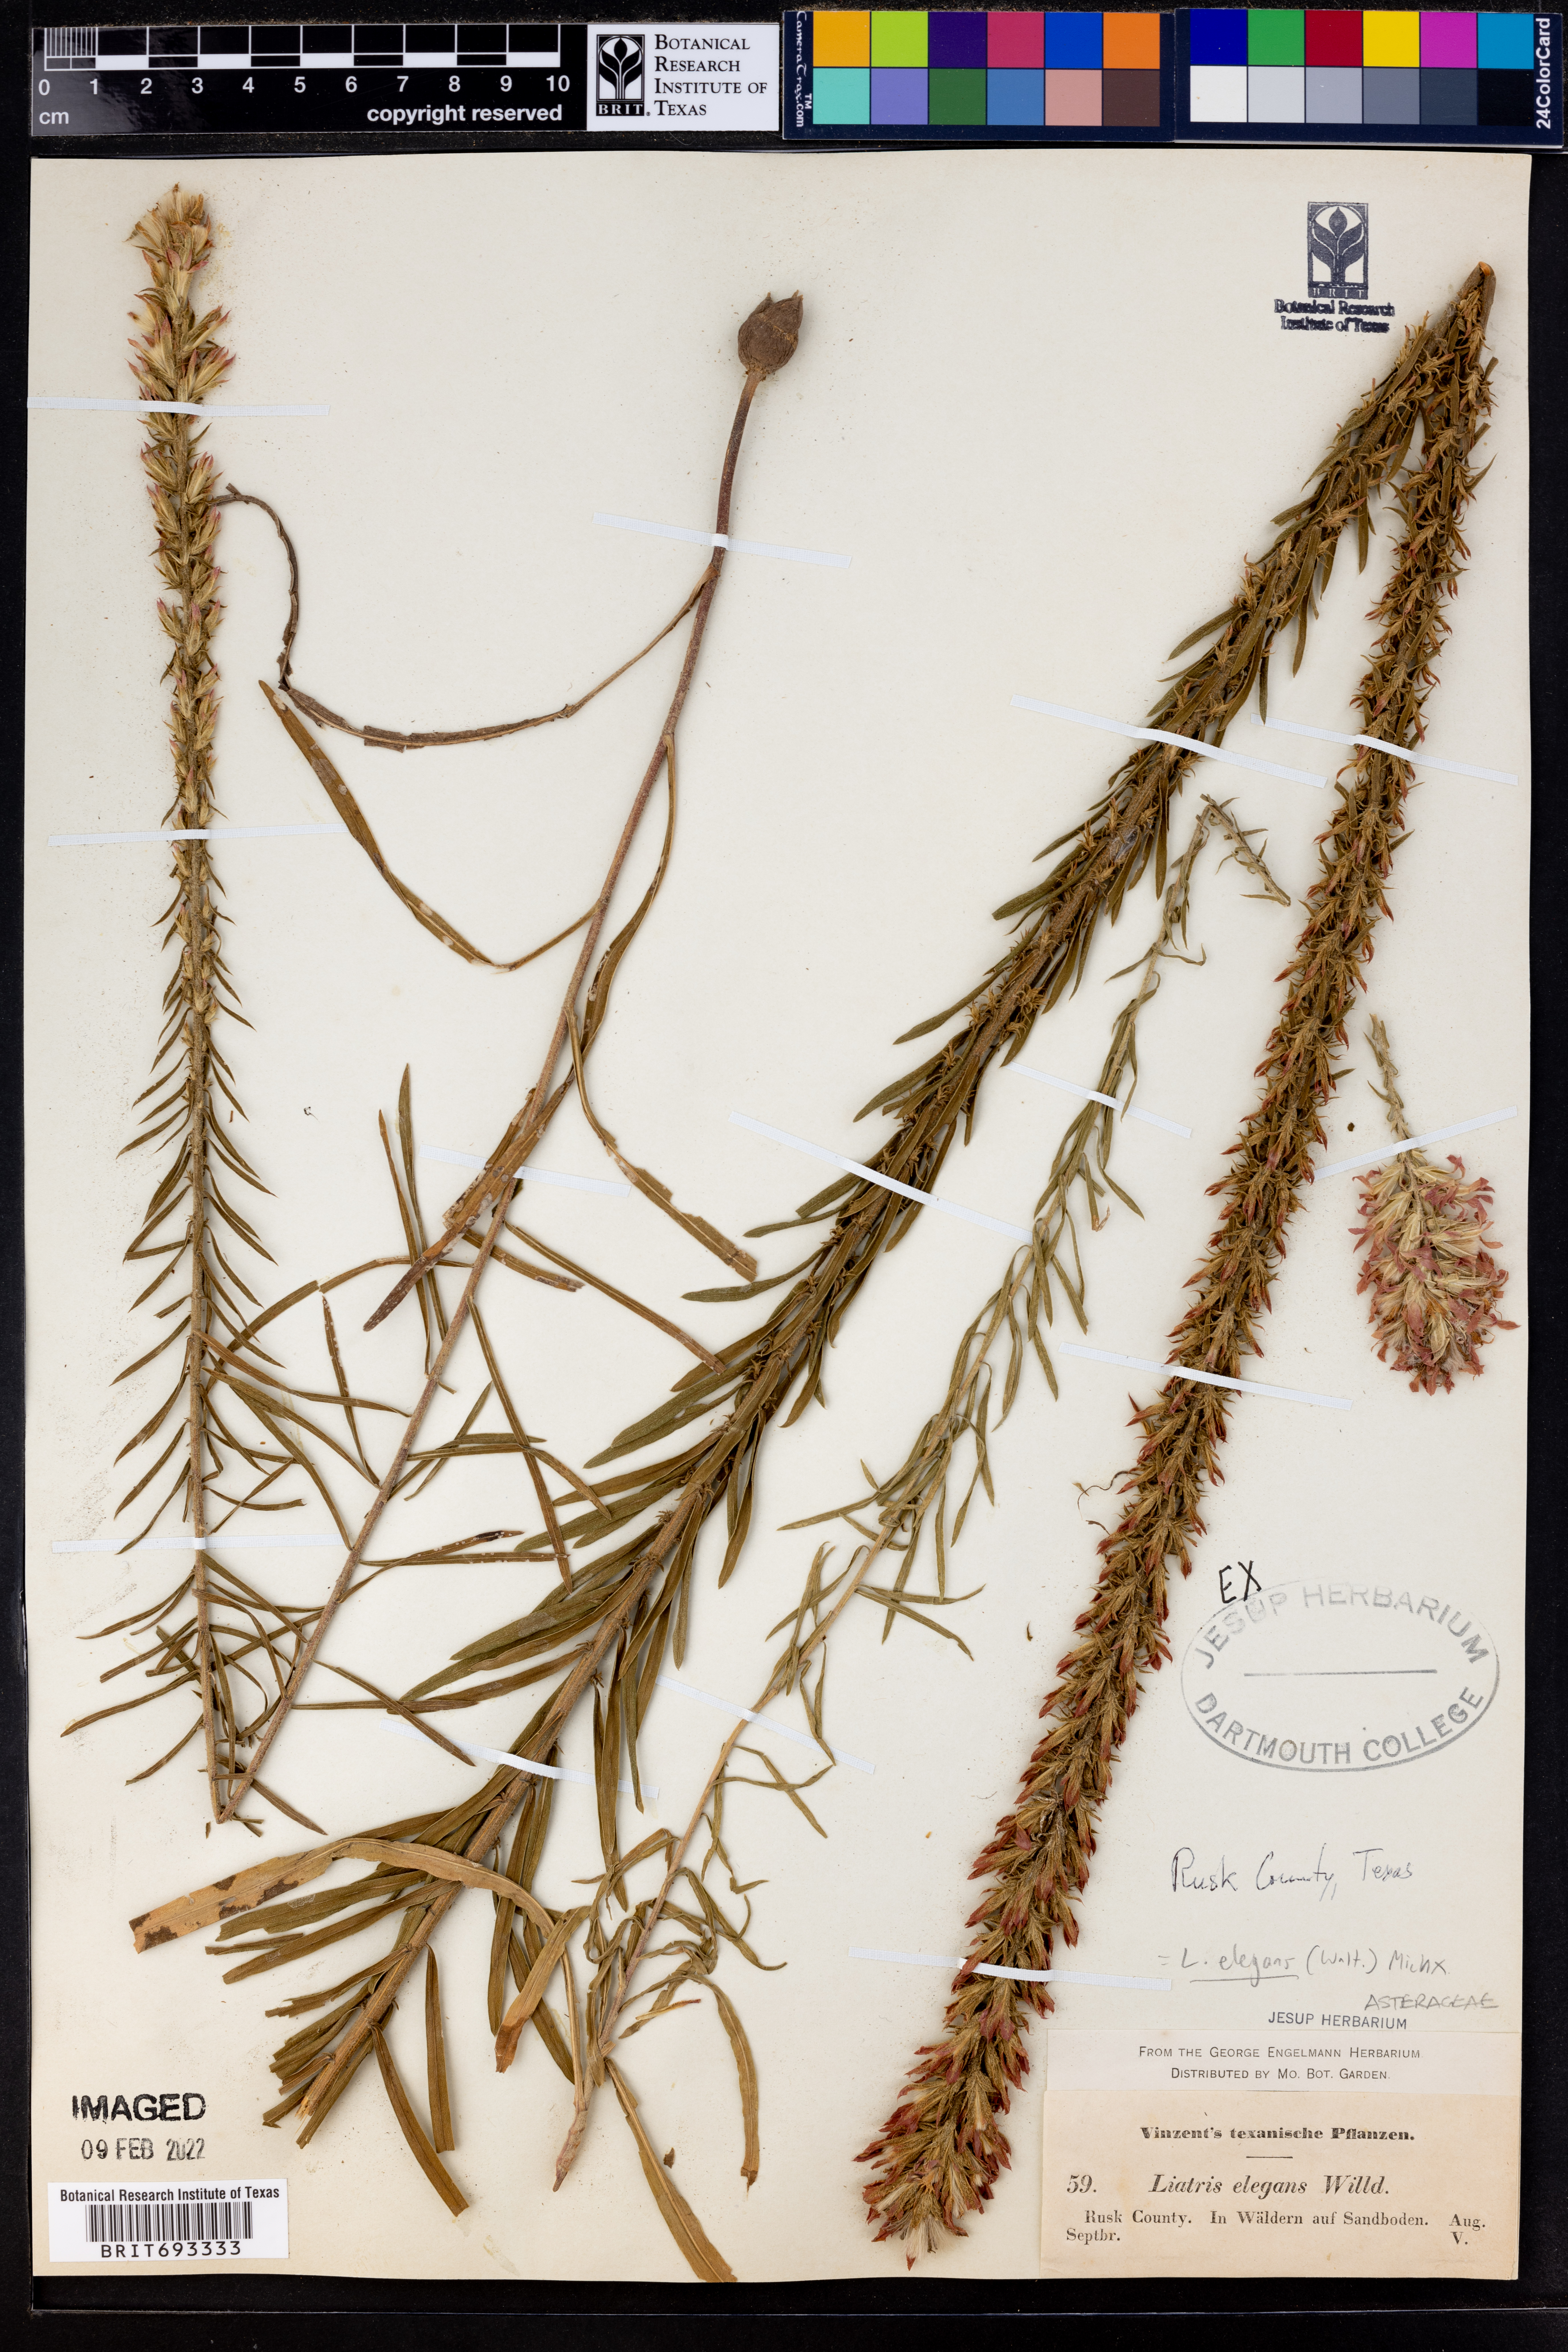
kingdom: Plantae
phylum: Tracheophyta
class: Magnoliopsida
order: Asterales
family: Asteraceae
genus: Liatris
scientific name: Liatris elegans
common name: Pinkscale gayfeather
